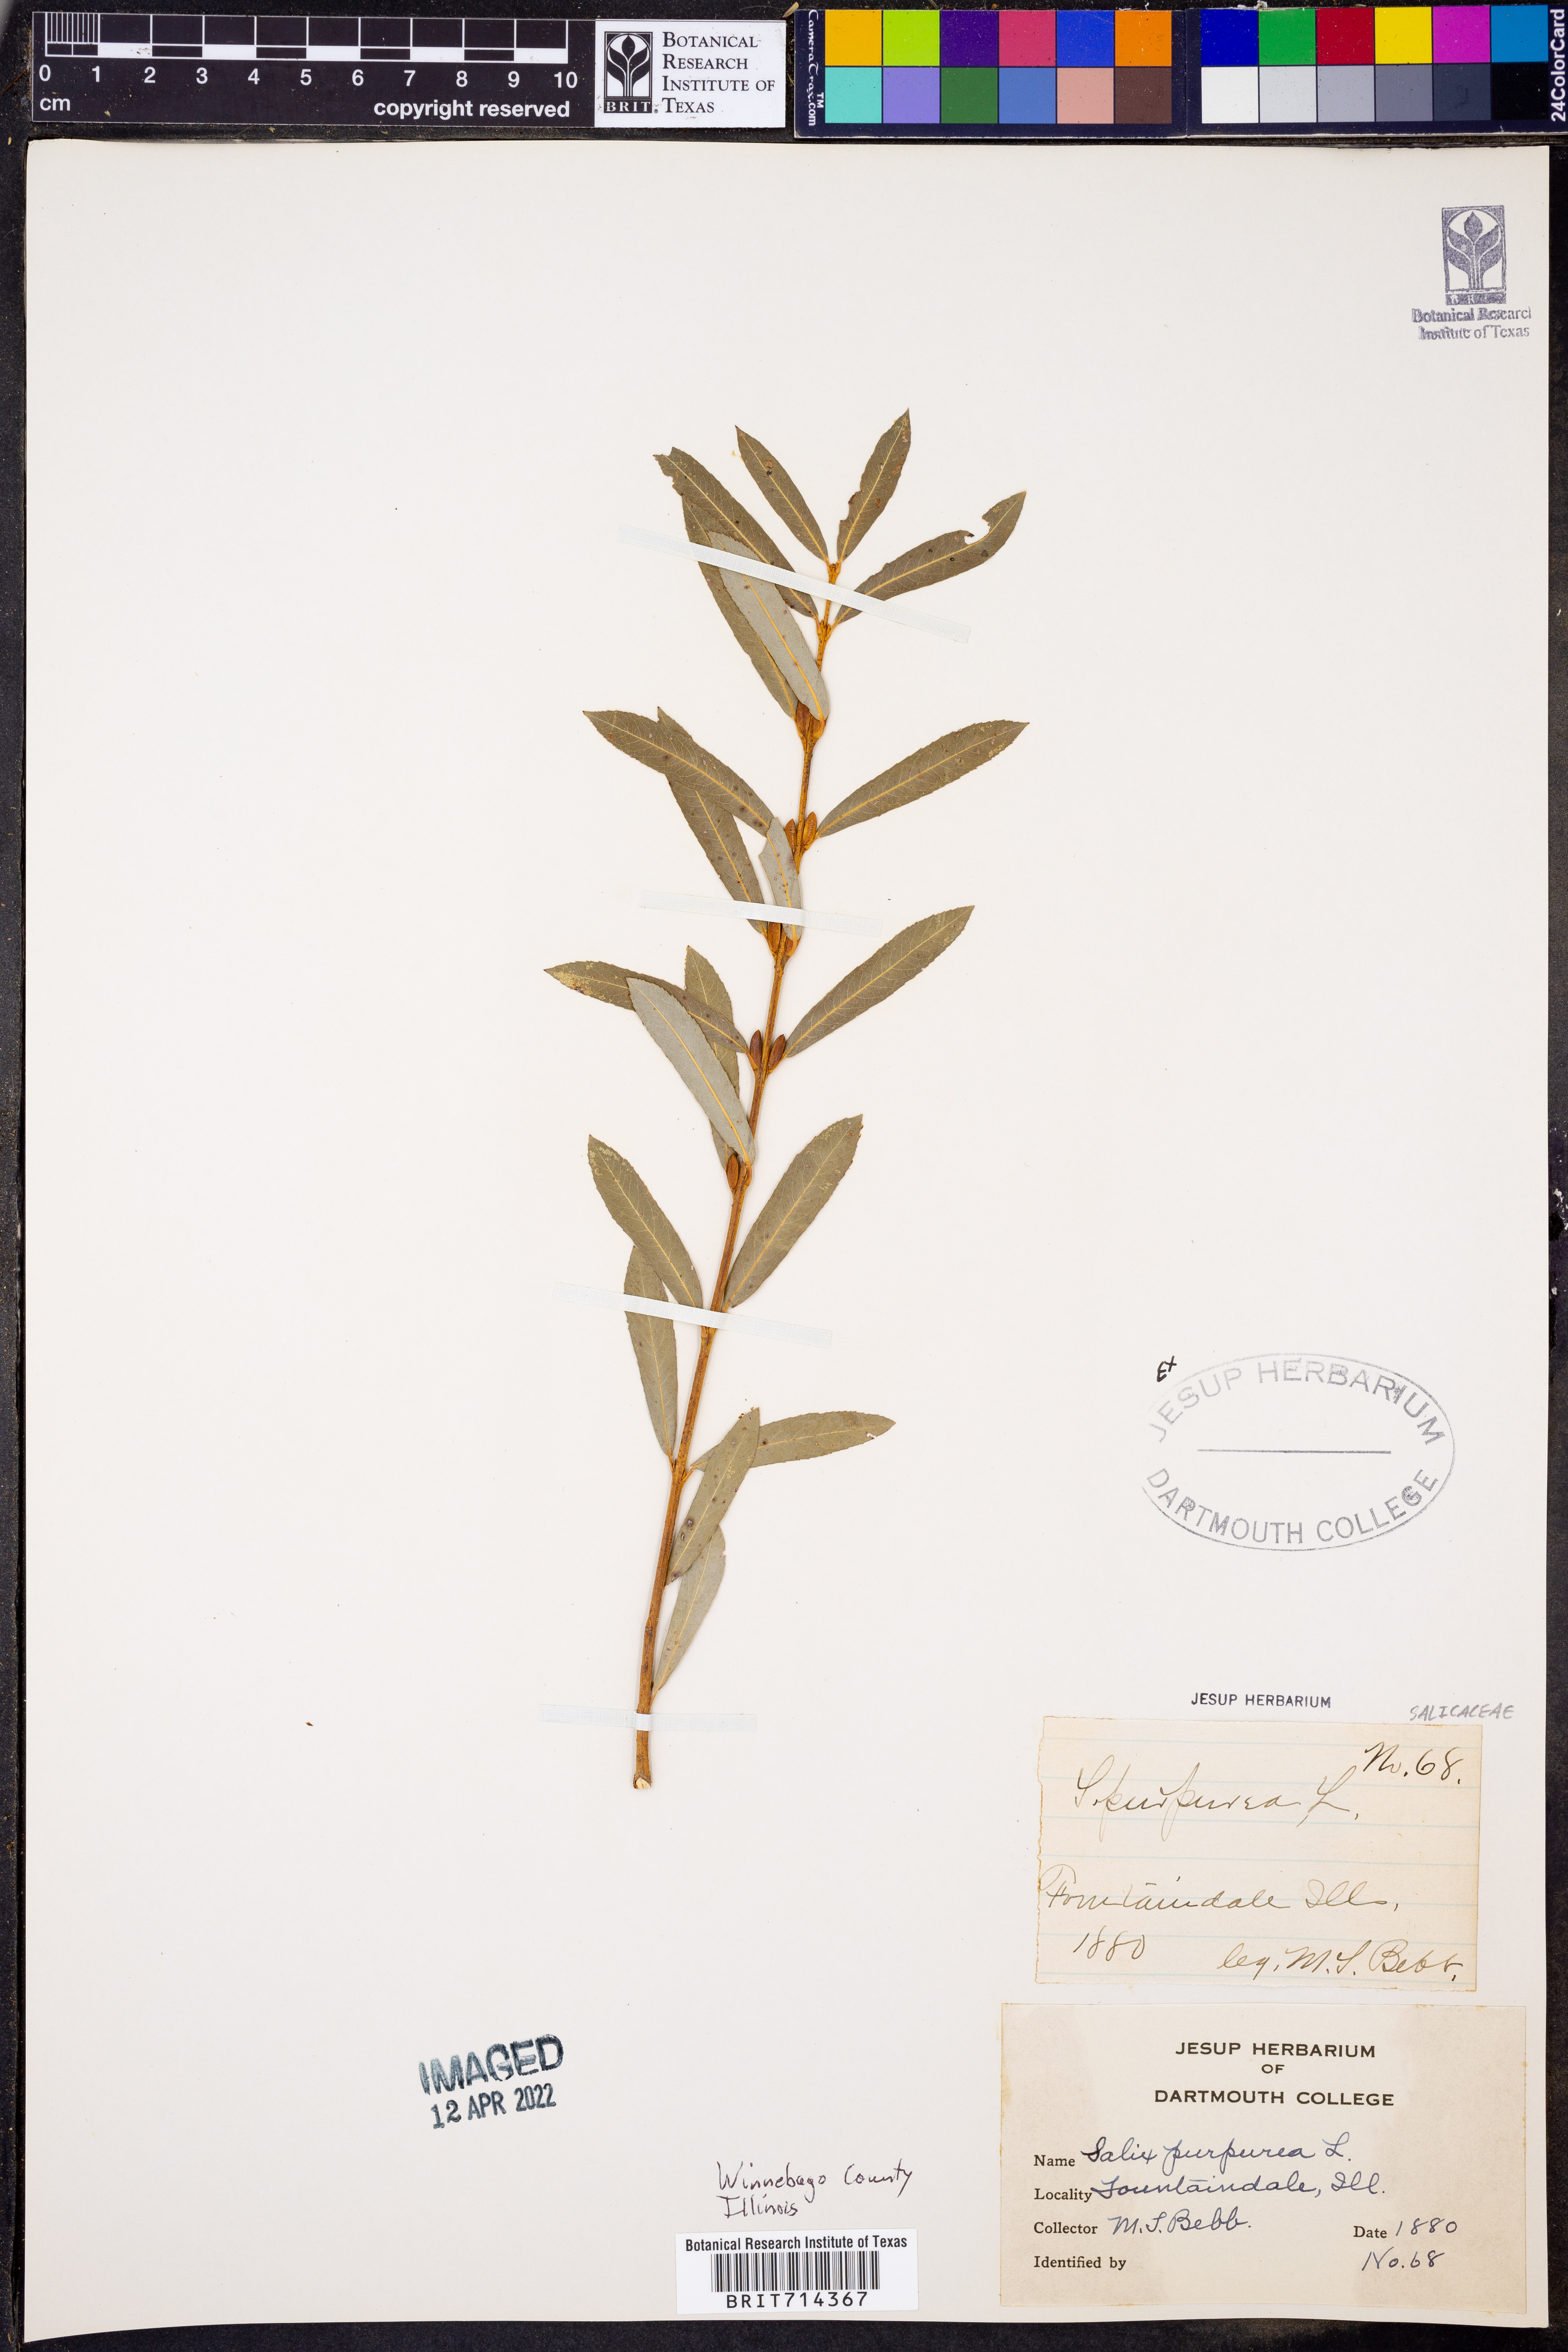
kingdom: Plantae
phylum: Tracheophyta
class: Magnoliopsida
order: Malpighiales
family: Salicaceae
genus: Salix
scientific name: Salix
